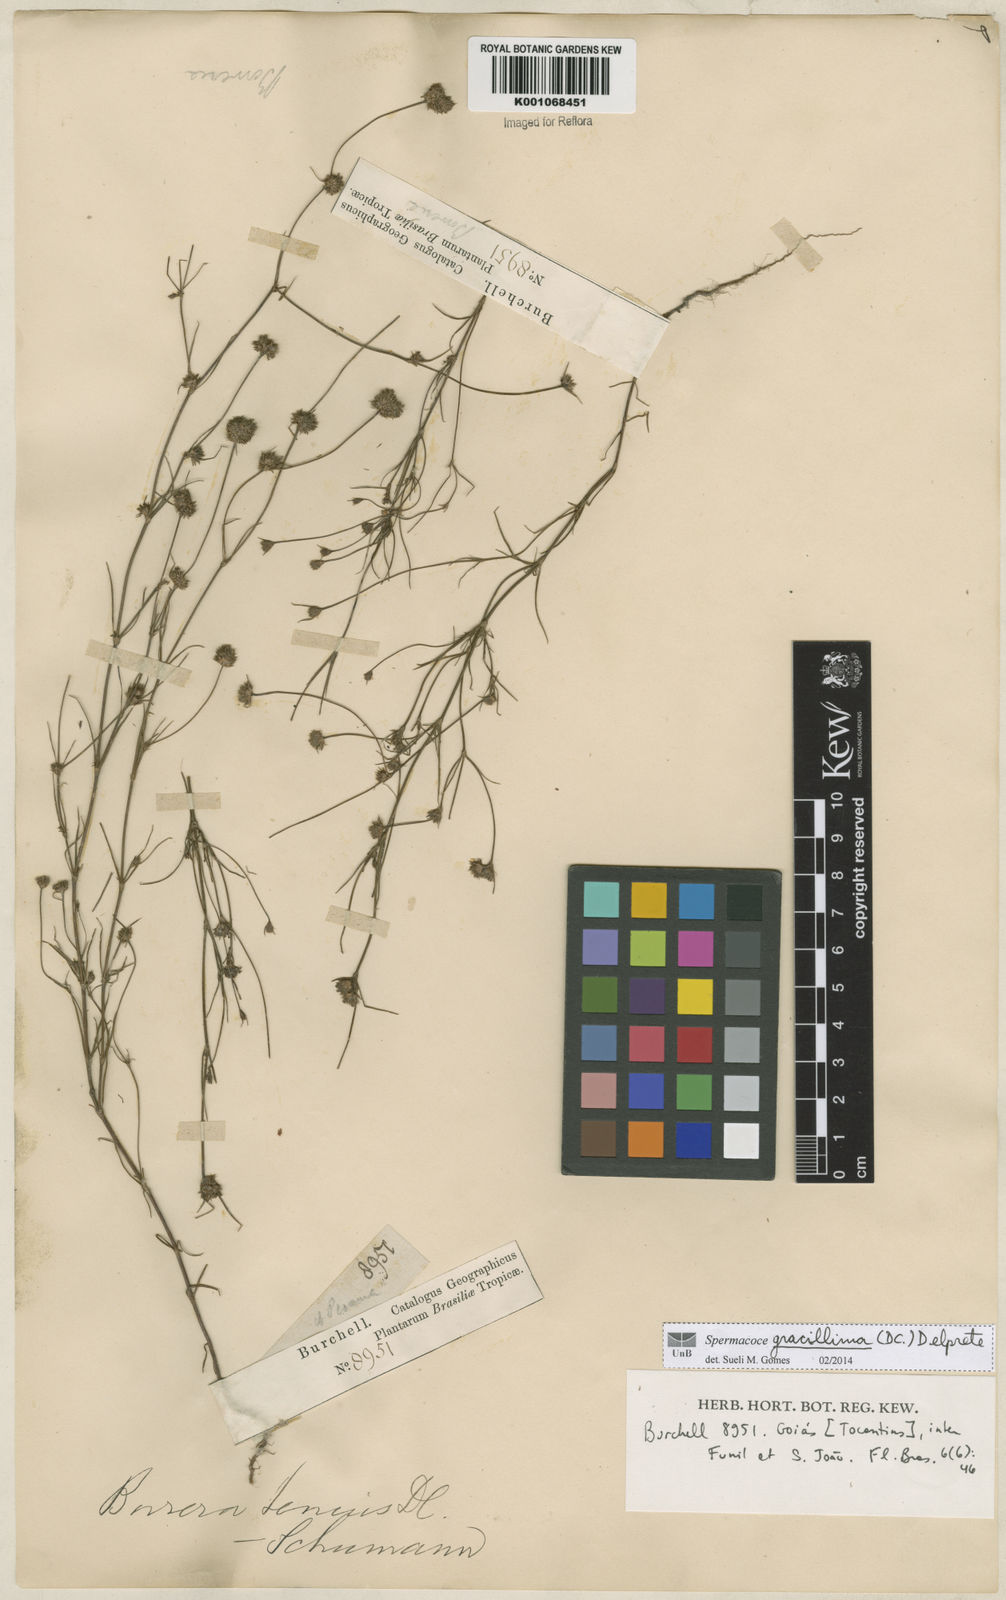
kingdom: Plantae
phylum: Tracheophyta
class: Magnoliopsida
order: Gentianales
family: Rubiaceae
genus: Spermacoce
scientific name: Spermacoce gracillima
